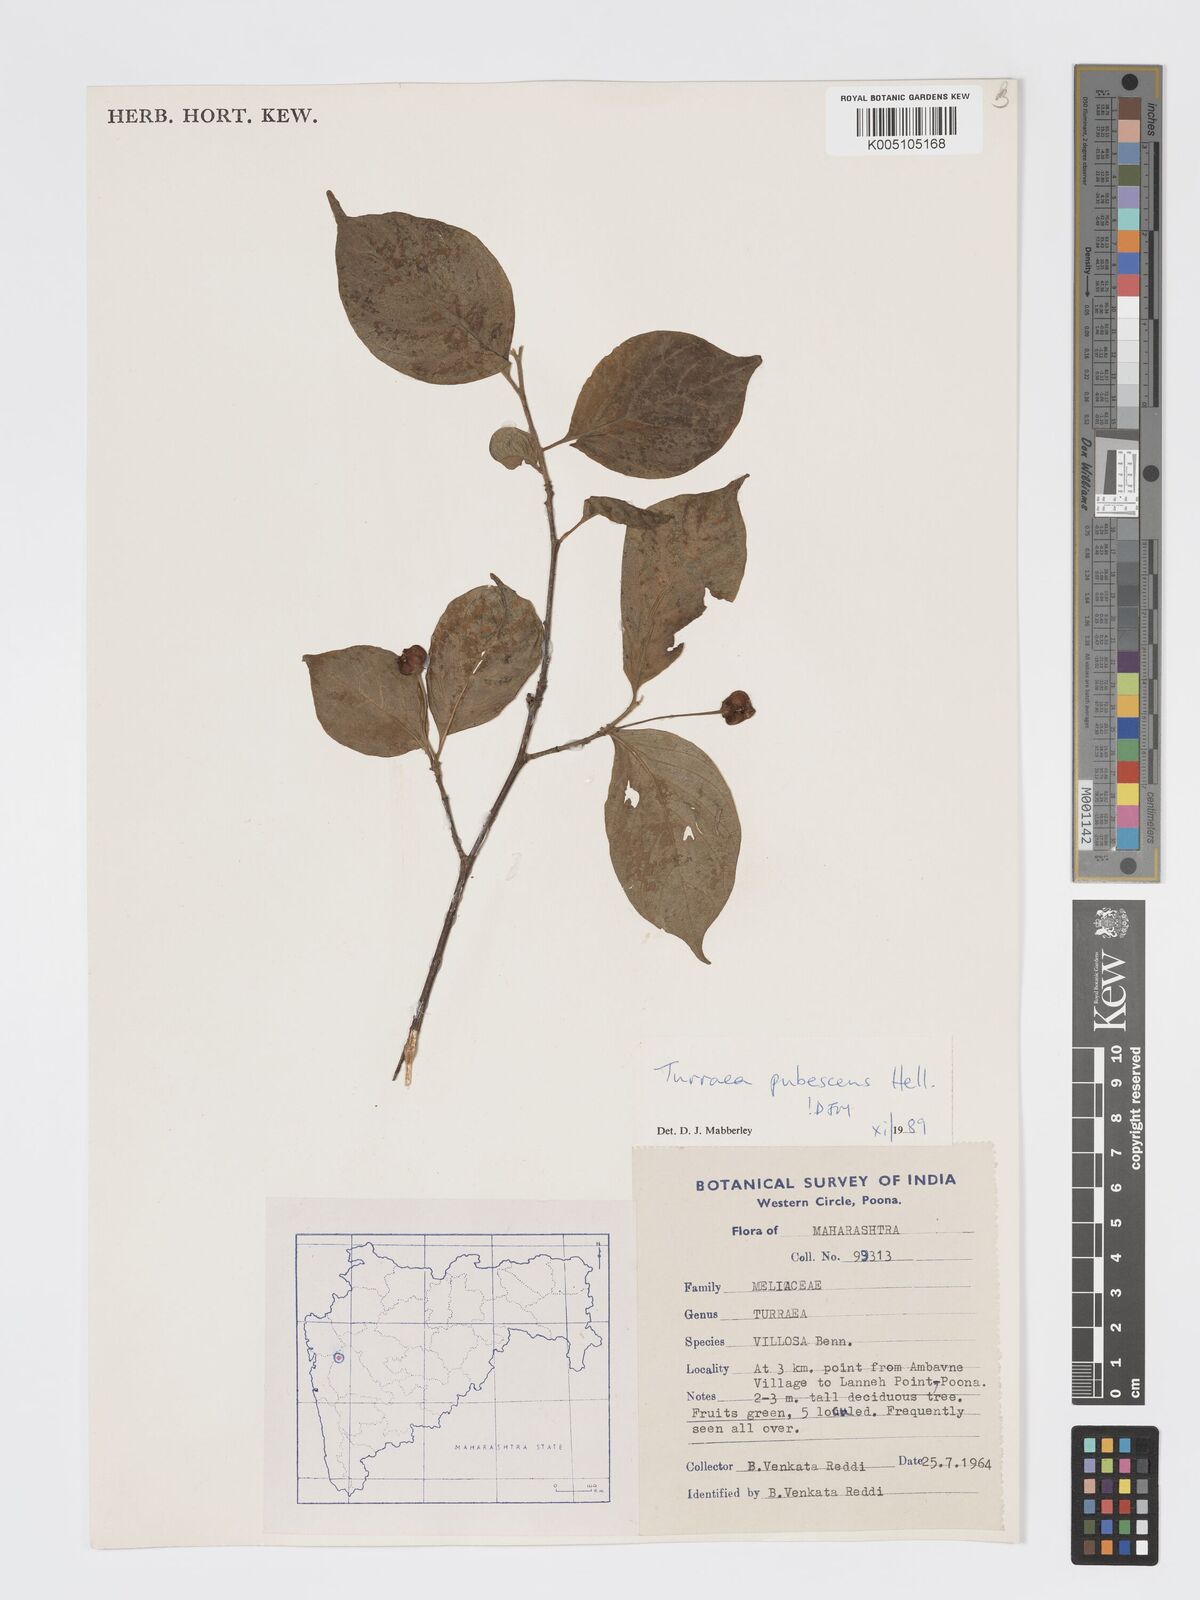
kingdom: Plantae
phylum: Tracheophyta
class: Magnoliopsida
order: Sapindales
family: Meliaceae
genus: Turraea
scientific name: Turraea
